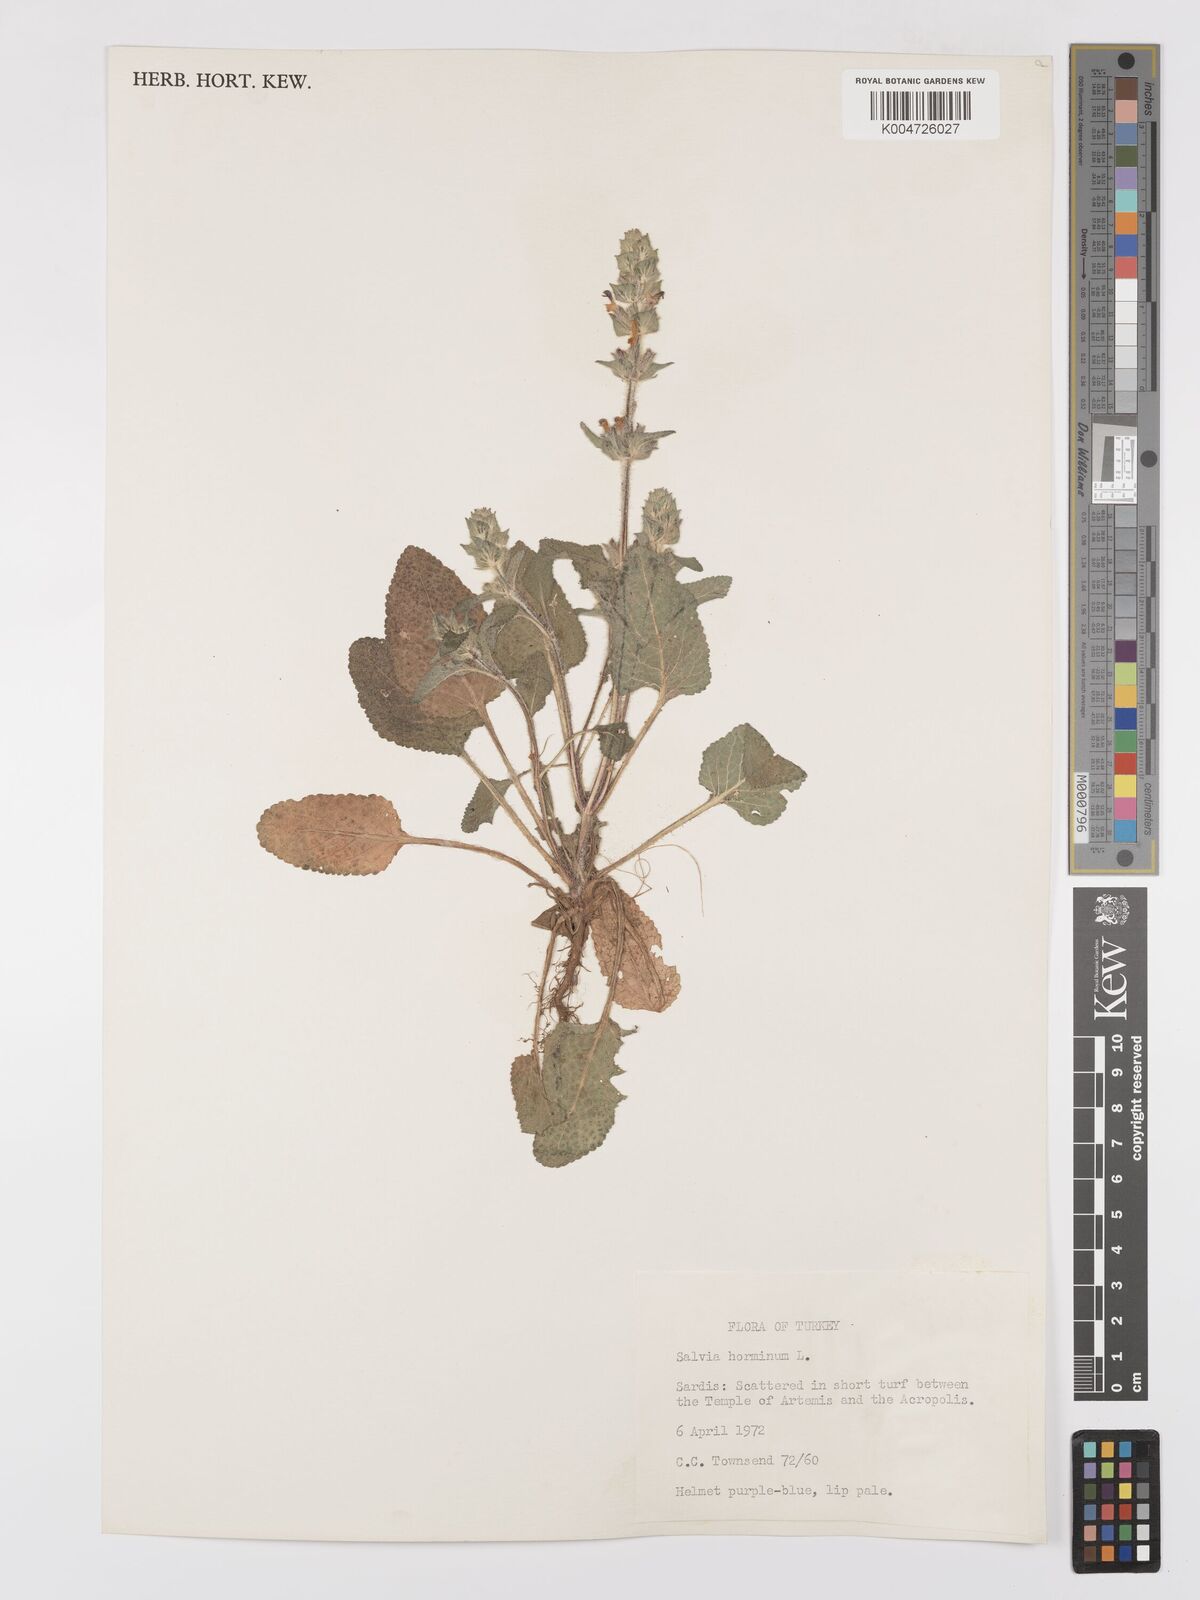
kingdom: Plantae
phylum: Tracheophyta
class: Magnoliopsida
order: Lamiales
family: Lamiaceae
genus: Salvia
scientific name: Salvia viridis
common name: Annual clary
